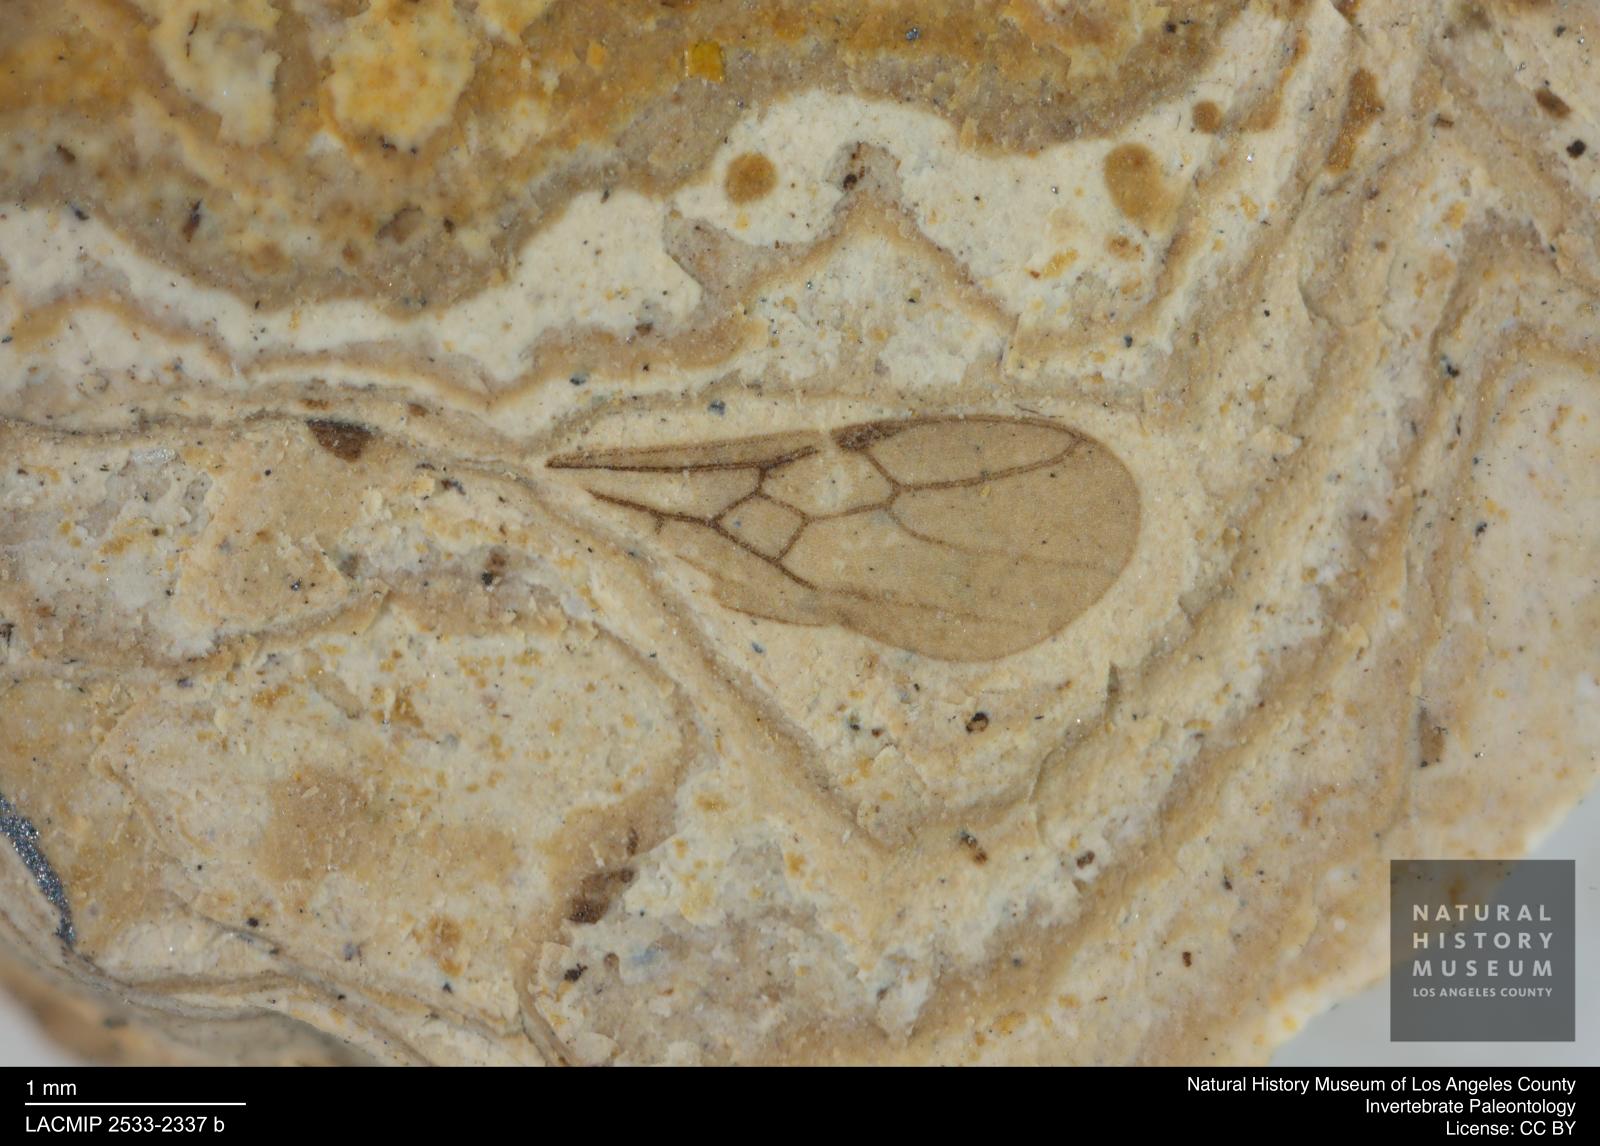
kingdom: Animalia
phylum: Arthropoda
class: Insecta
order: Hymenoptera
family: Formicidae
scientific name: Formicidae
